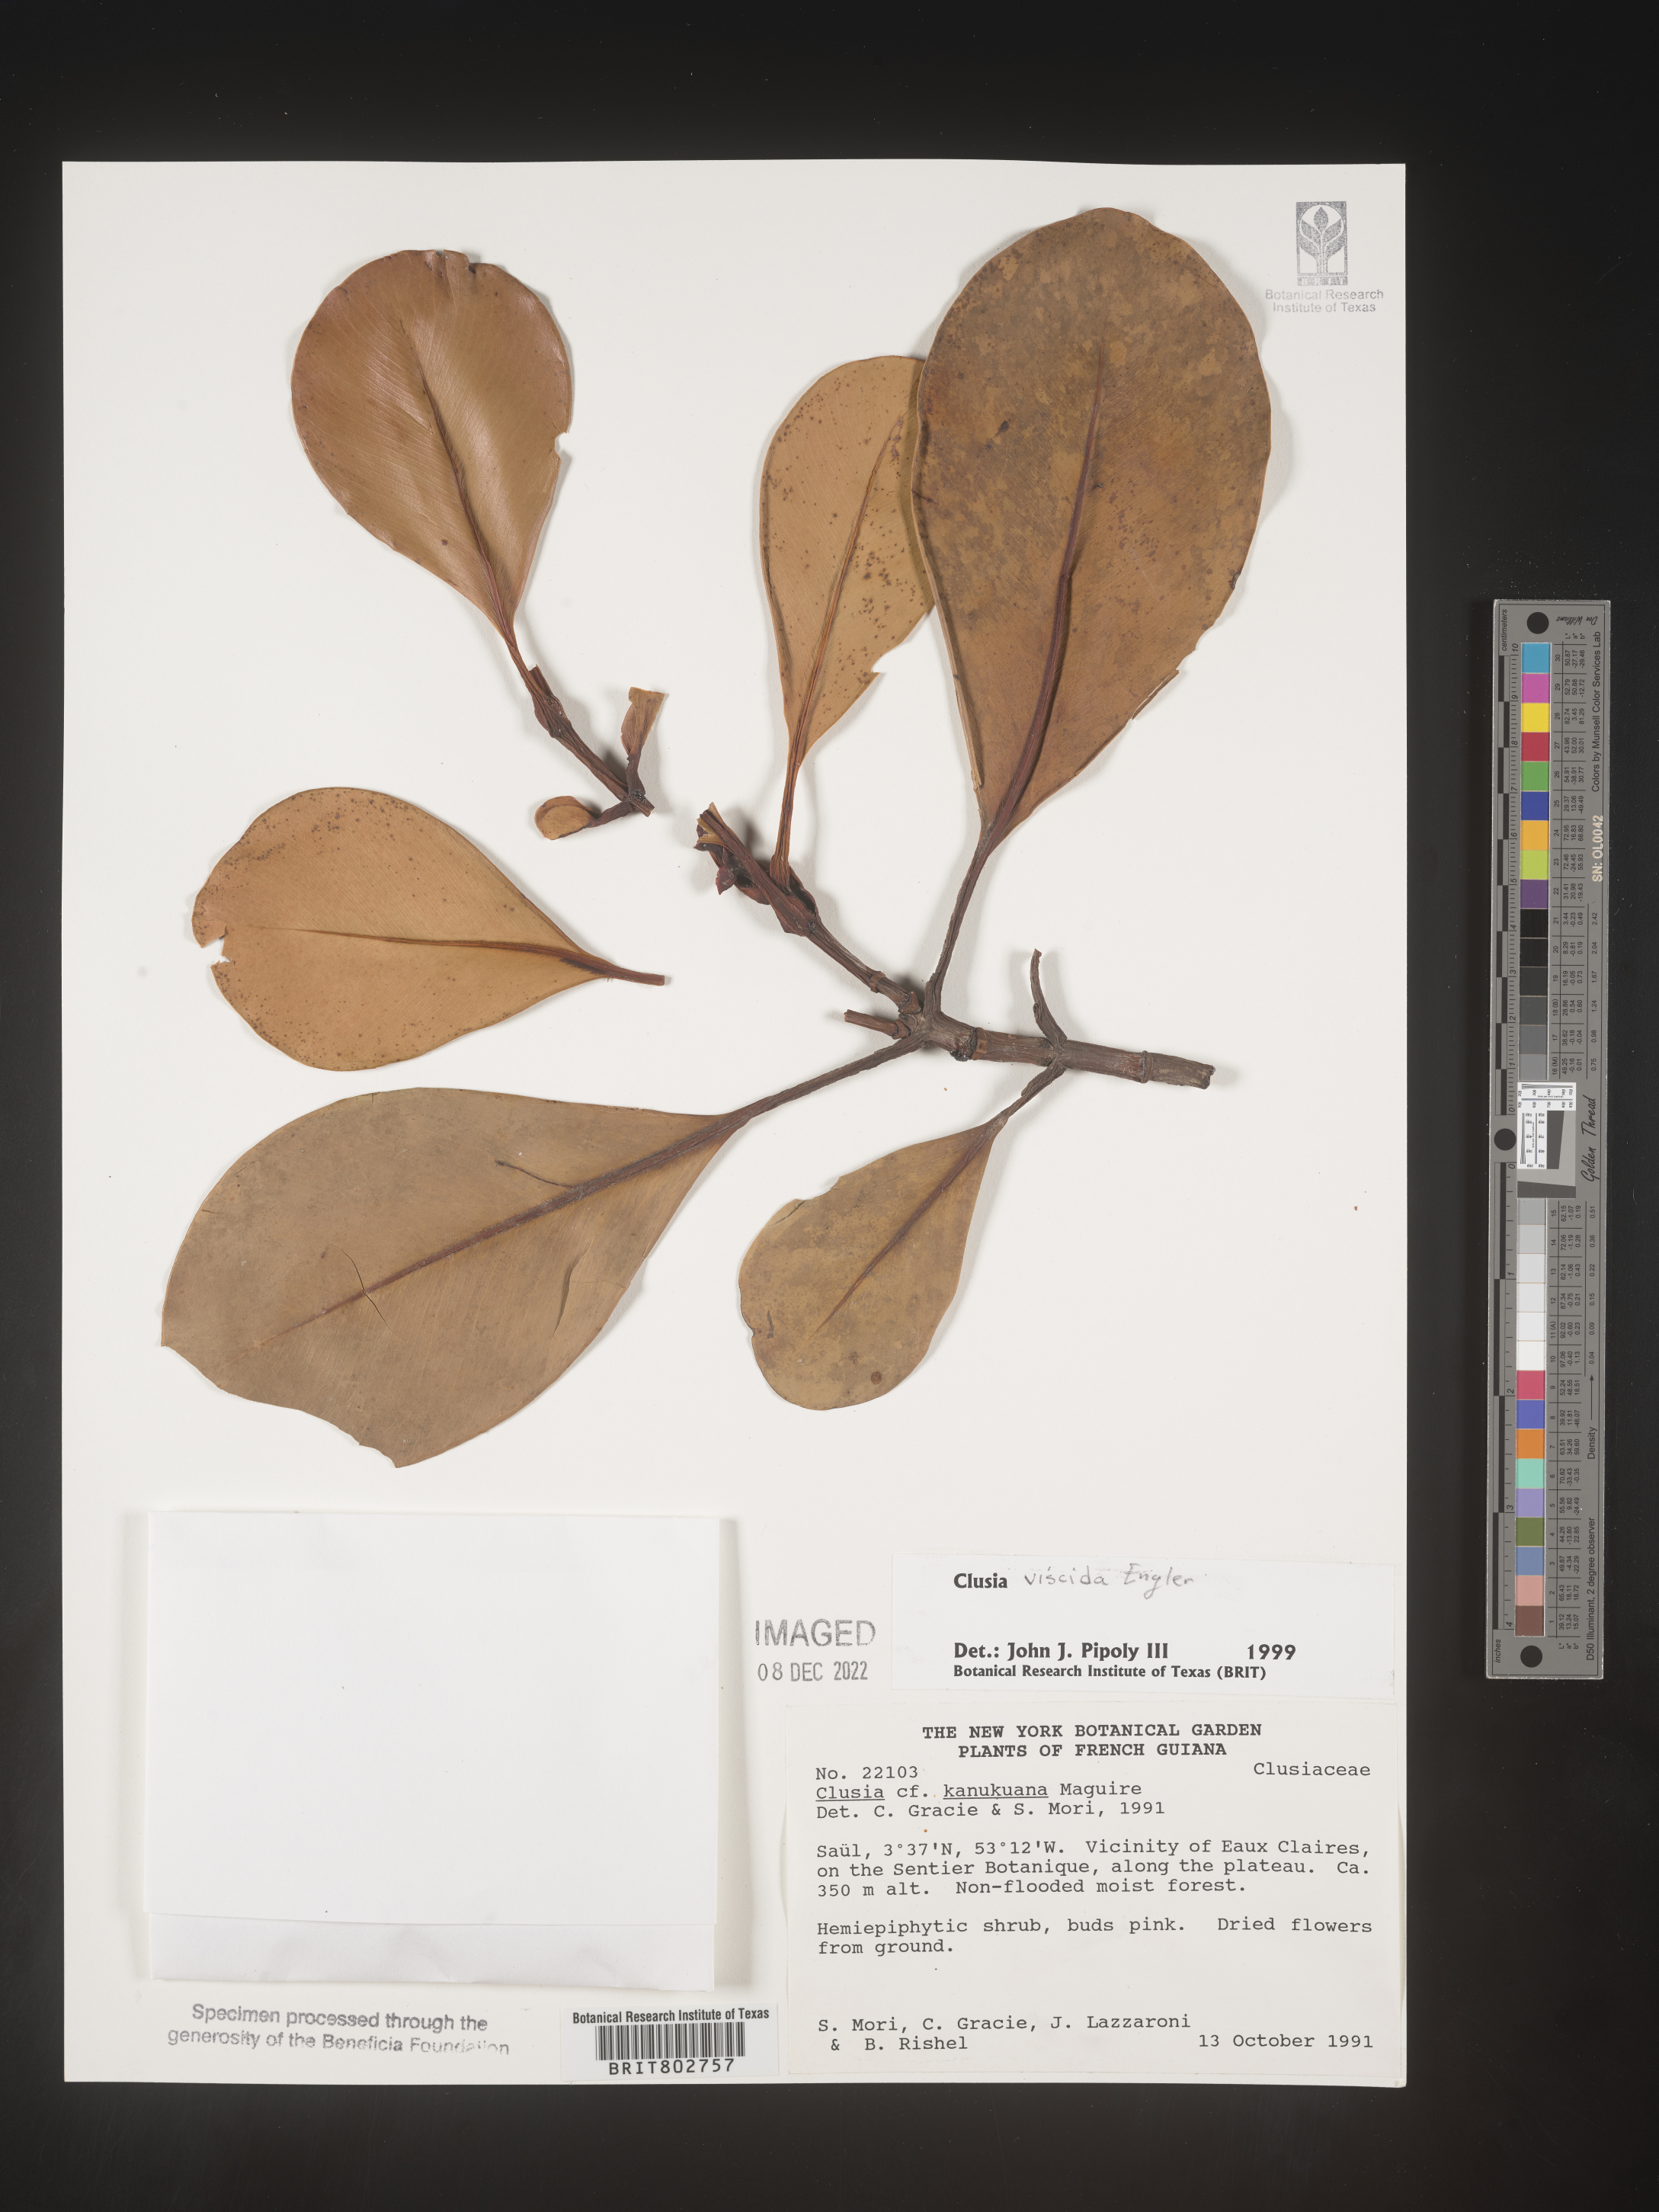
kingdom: Plantae
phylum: Tracheophyta
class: Magnoliopsida
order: Malpighiales
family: Clusiaceae
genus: Clusia
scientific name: Clusia viscida
